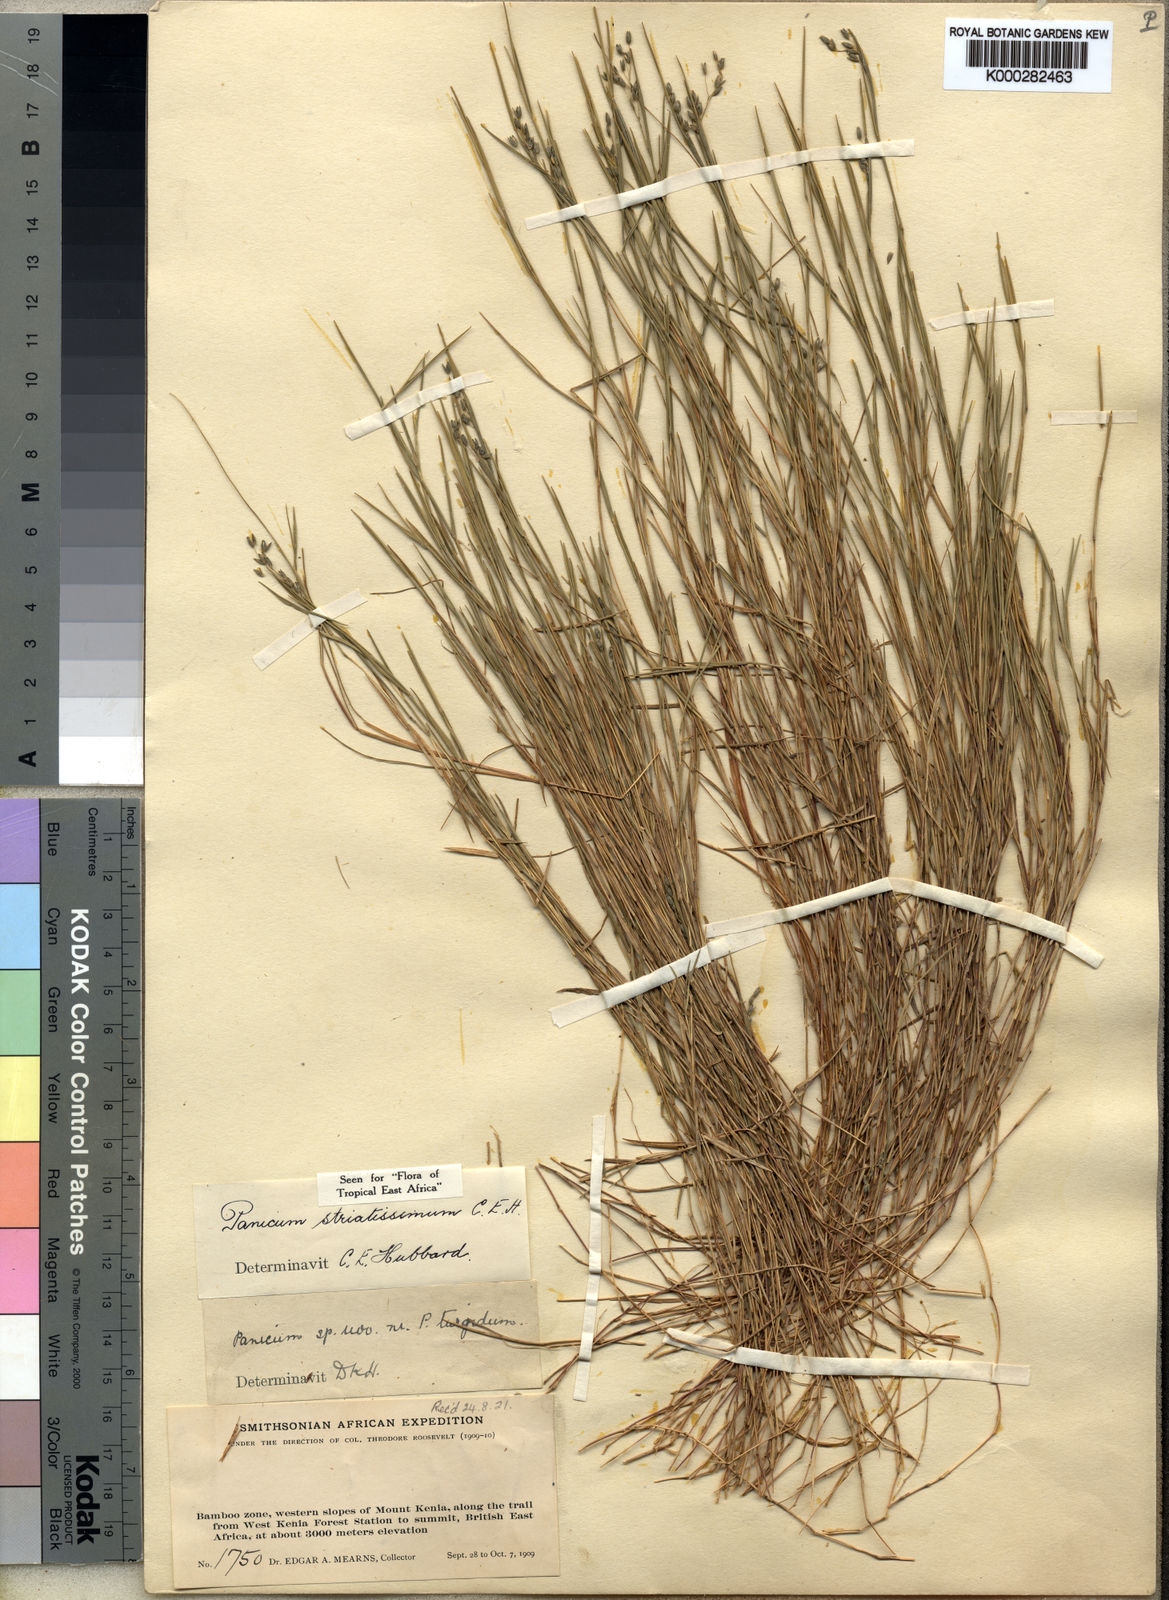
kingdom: Plantae
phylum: Tracheophyta
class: Liliopsida
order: Poales
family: Poaceae
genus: Panicum
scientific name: Panicum eickii
